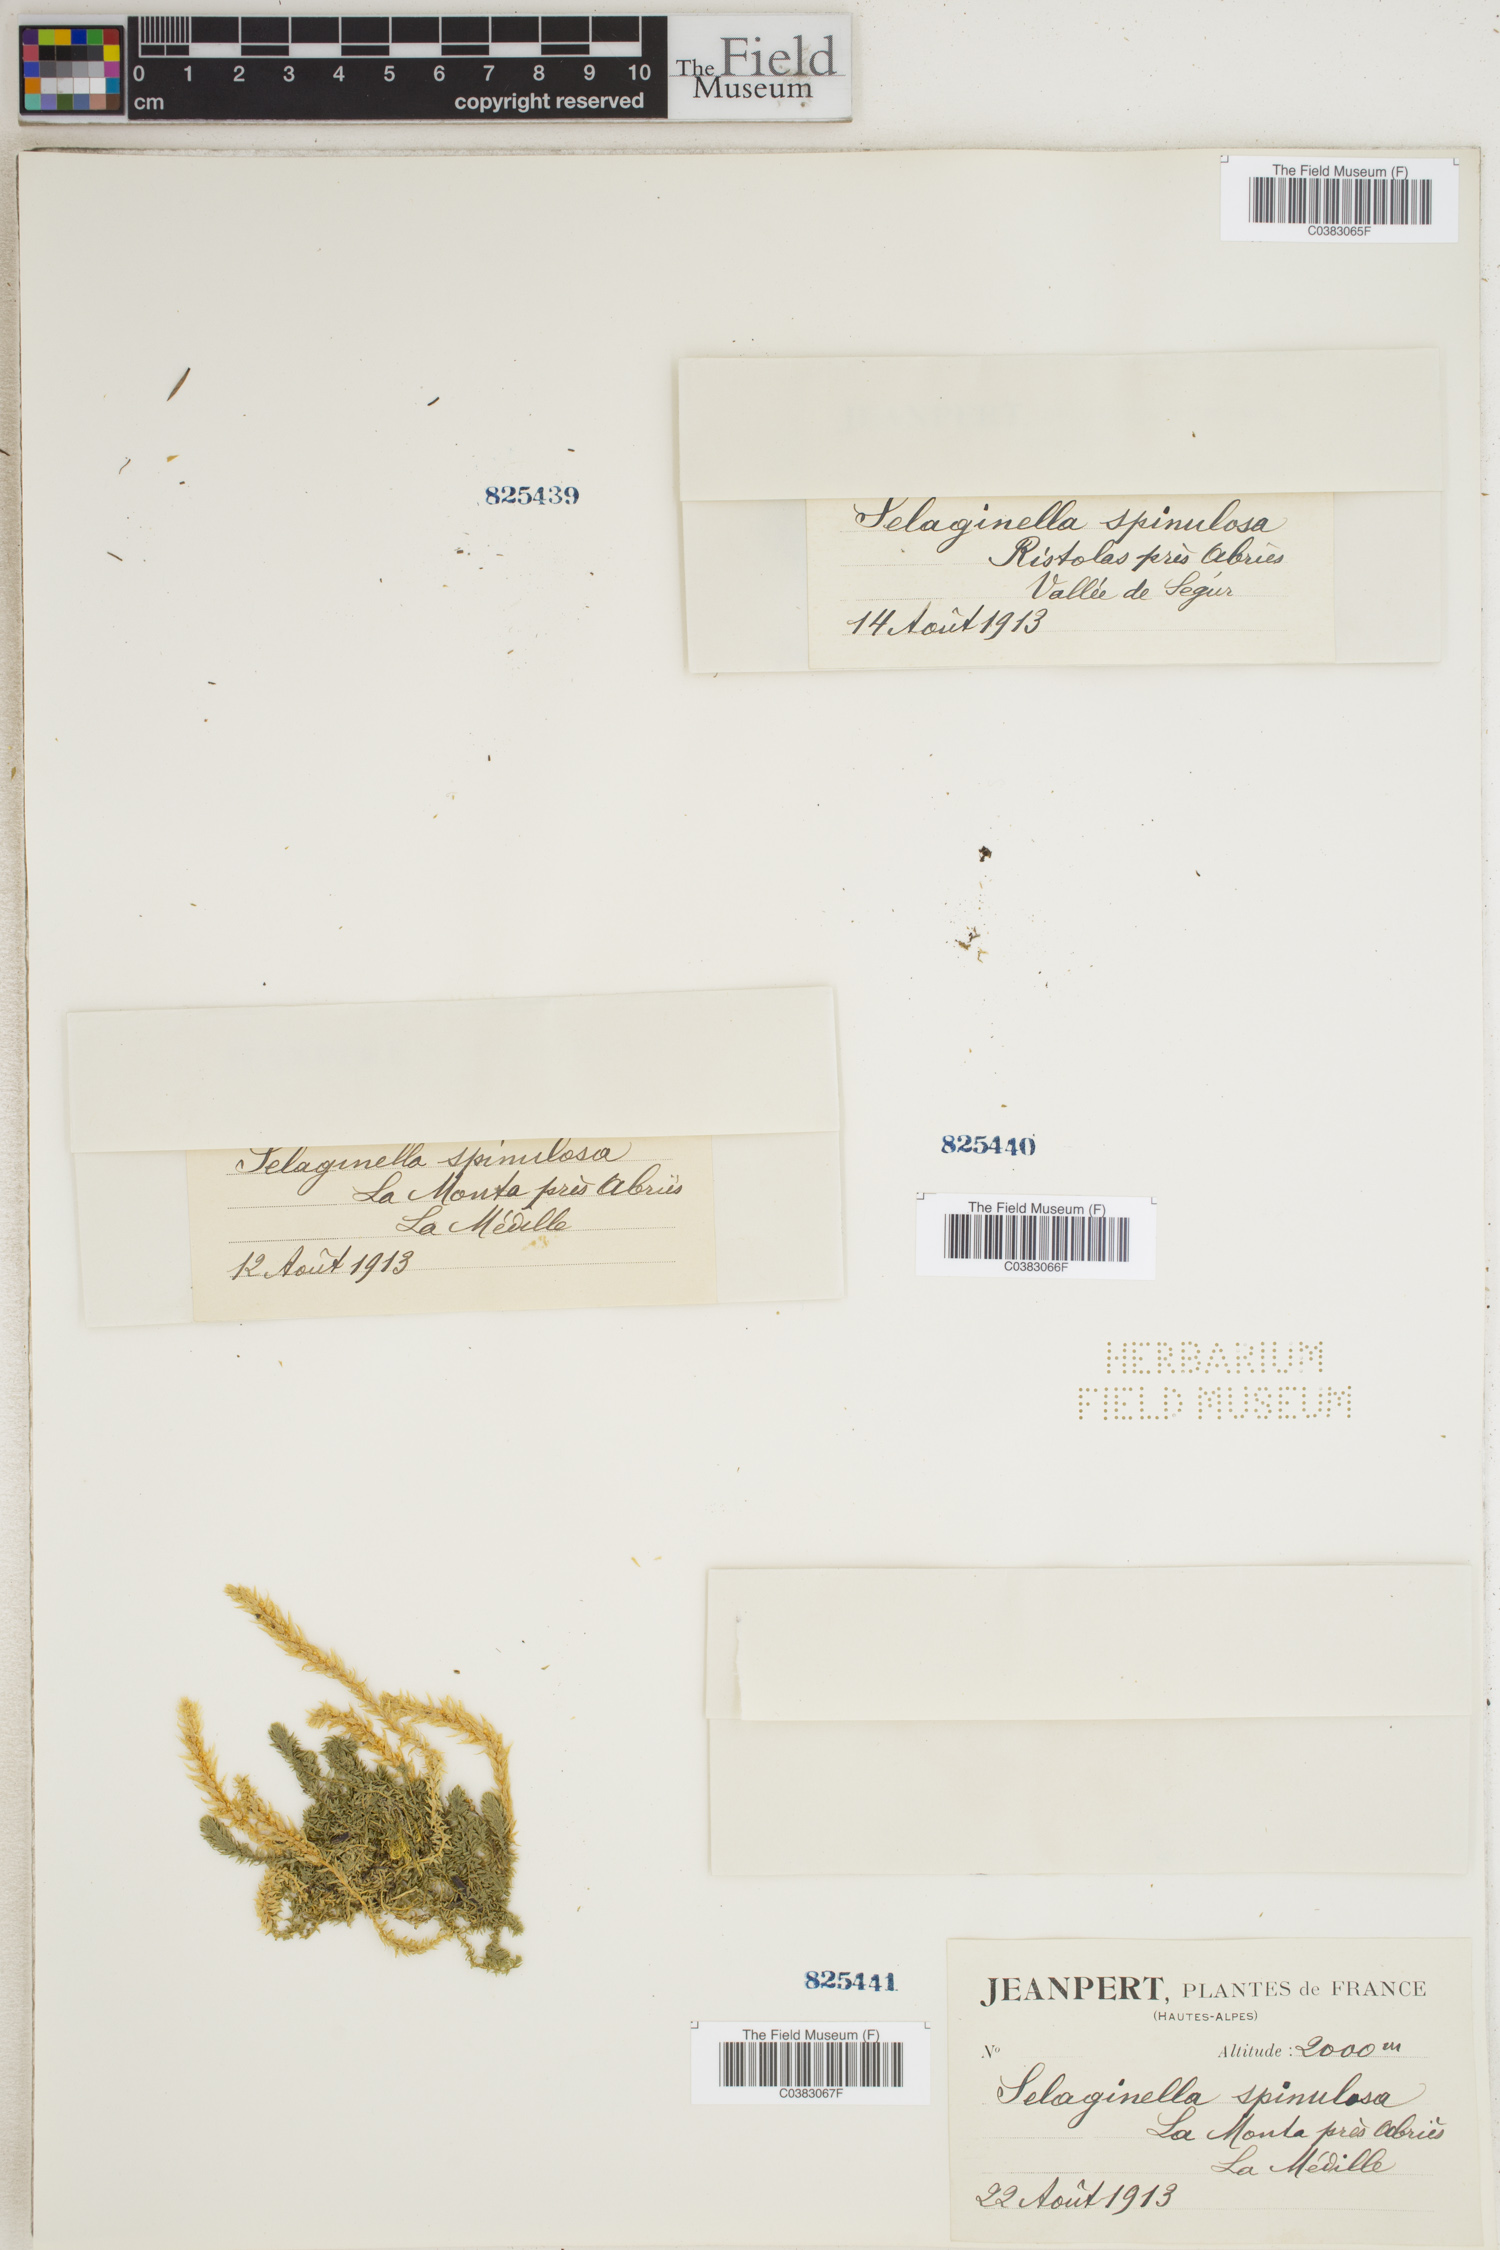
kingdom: Plantae
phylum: Tracheophyta
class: Lycopodiopsida
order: Selaginellales
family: Selaginellaceae
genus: Selaginella
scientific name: Selaginella selaginoides
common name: Prickly mountain-moss
